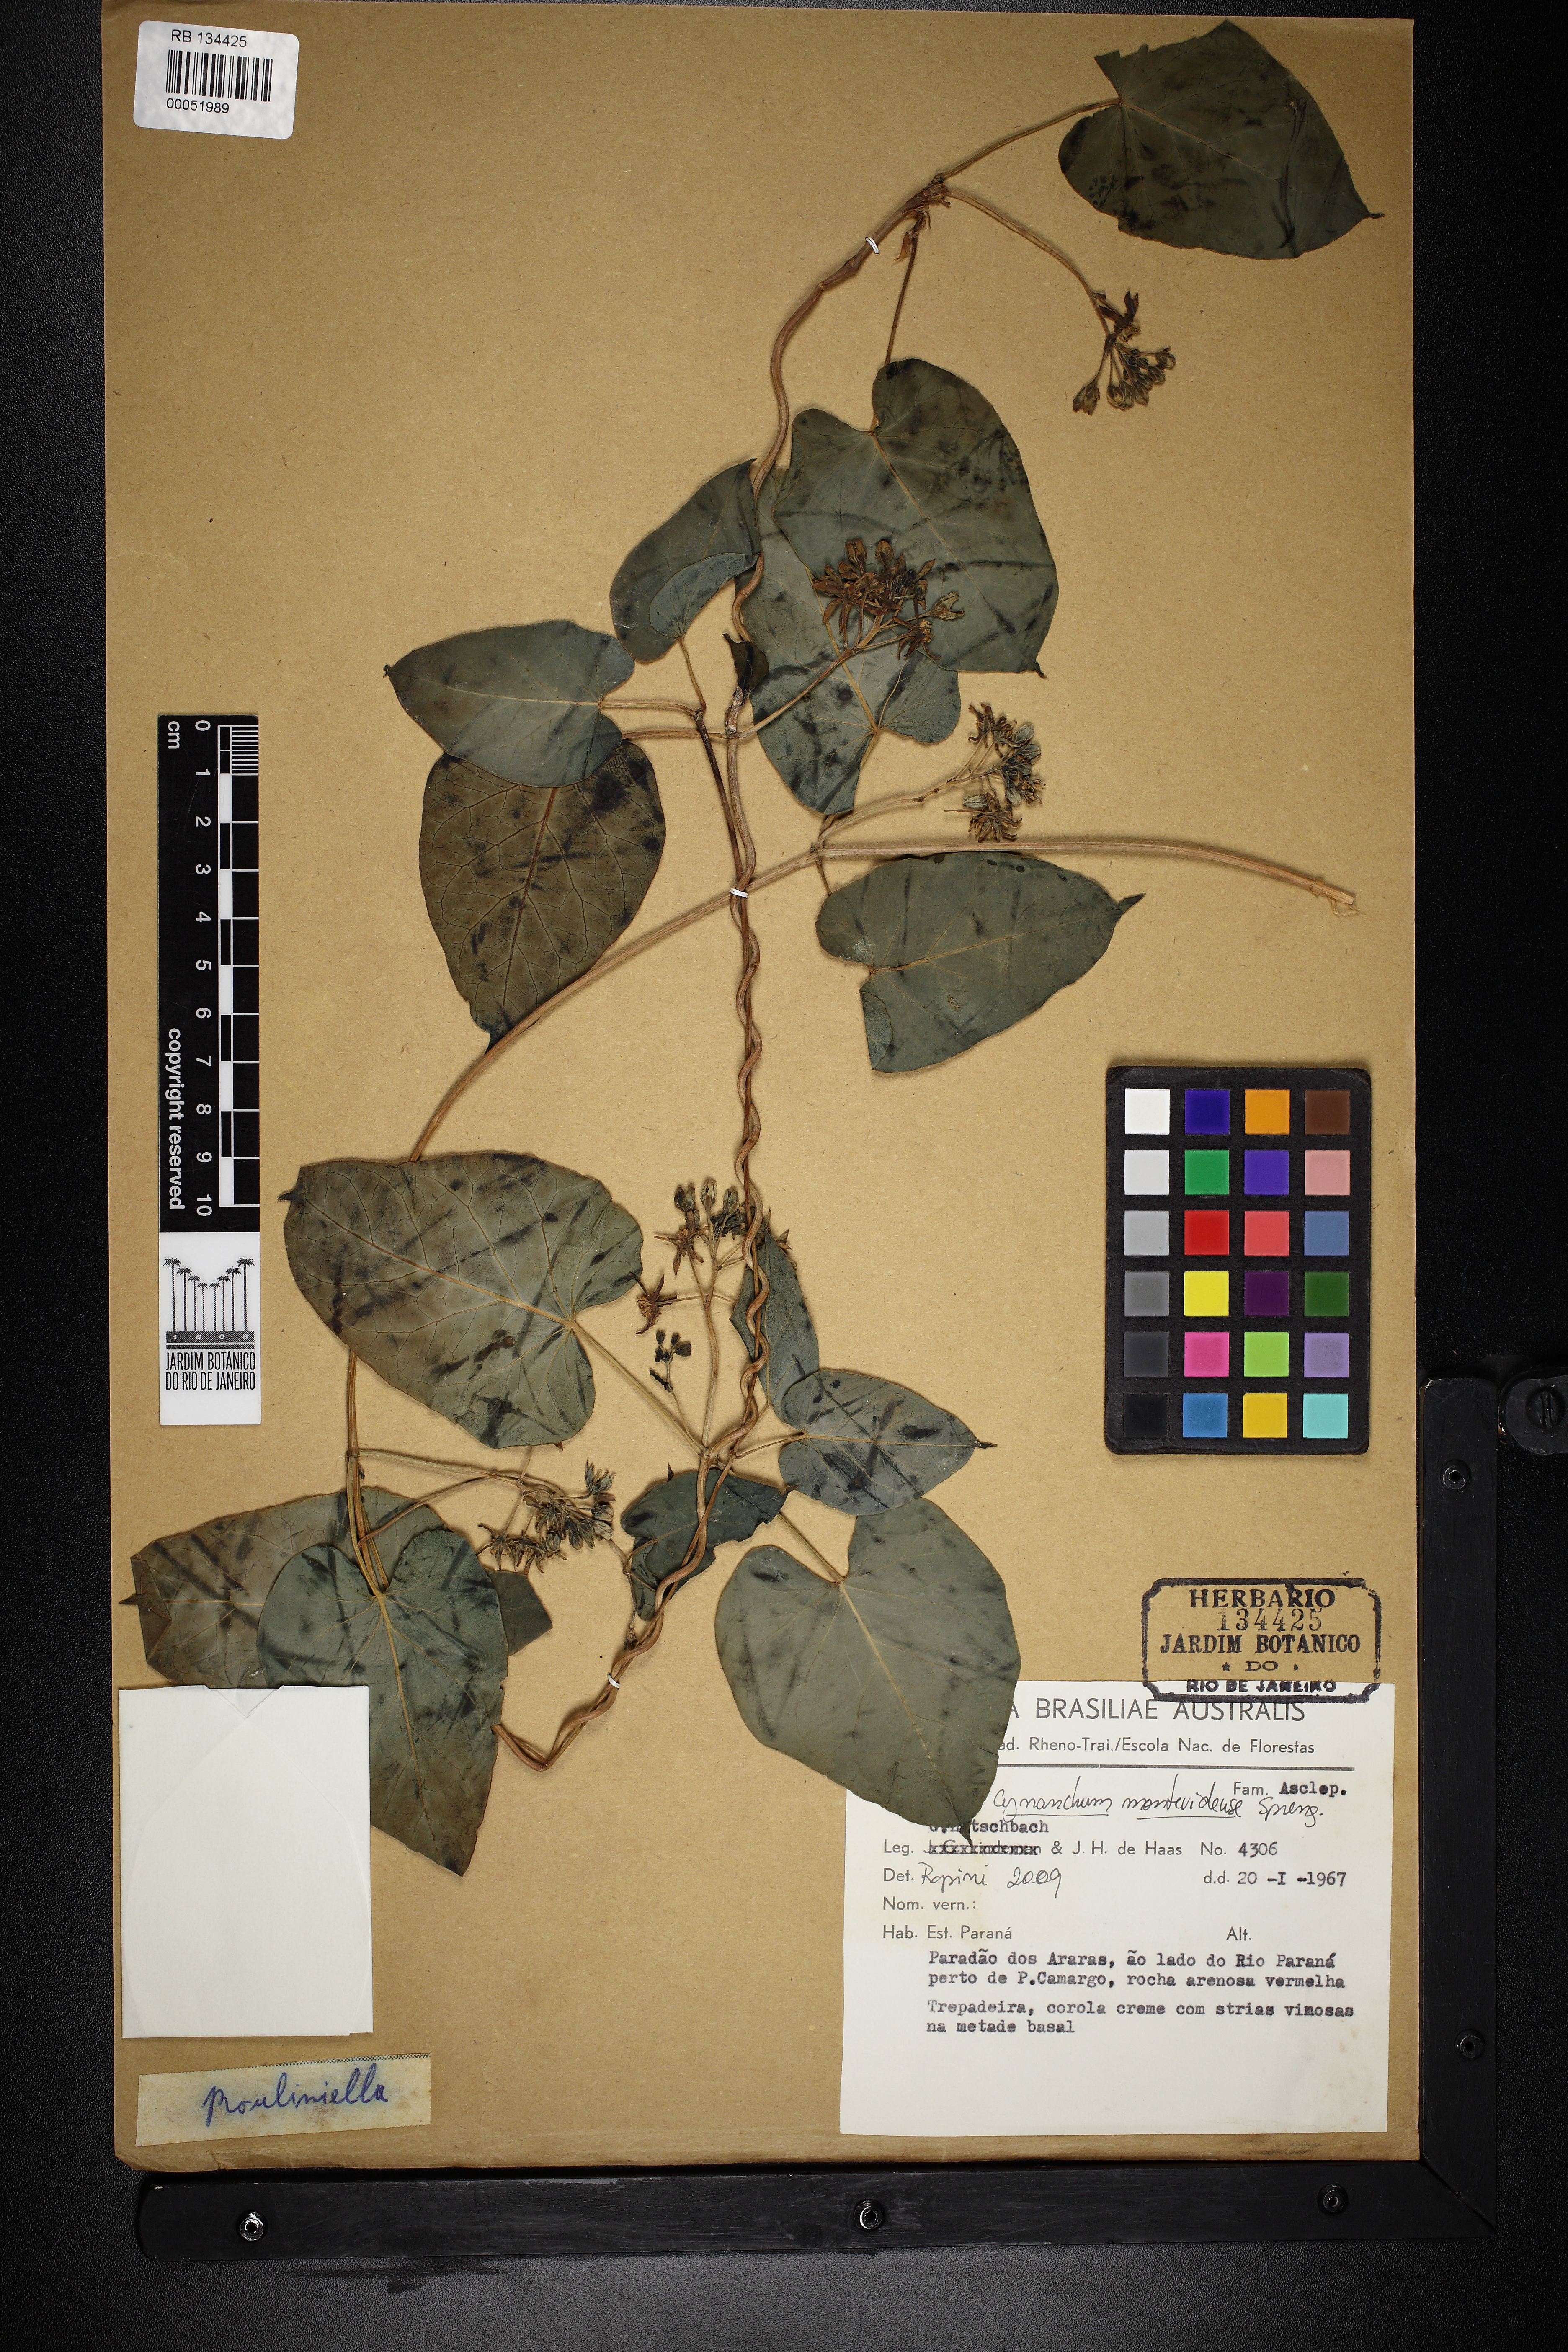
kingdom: Plantae
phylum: Tracheophyta
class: Magnoliopsida
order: Gentianales
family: Apocynaceae
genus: Cynanchum
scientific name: Cynanchum montevidense
